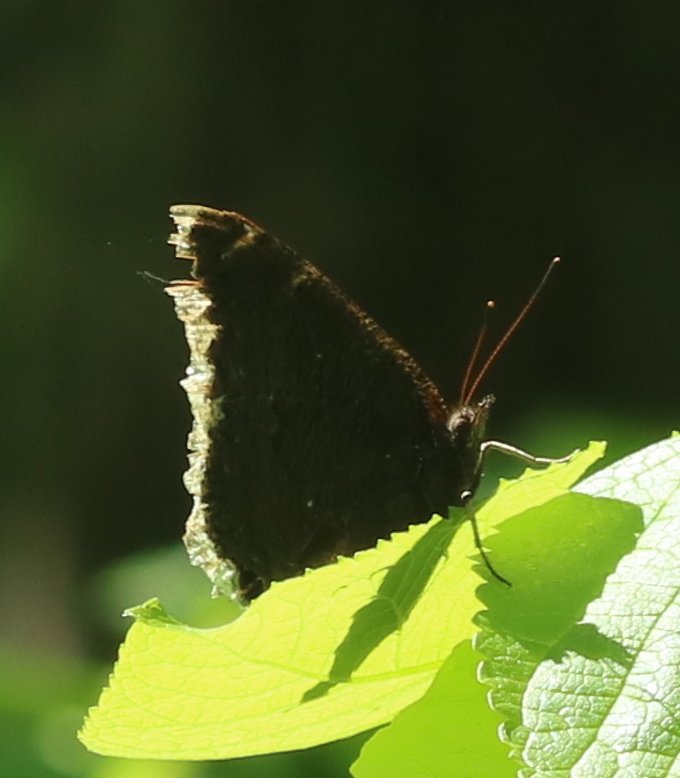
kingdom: Animalia
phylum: Arthropoda
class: Insecta
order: Lepidoptera
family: Nymphalidae
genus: Nymphalis
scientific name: Nymphalis antiopa
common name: Mourning Cloak
